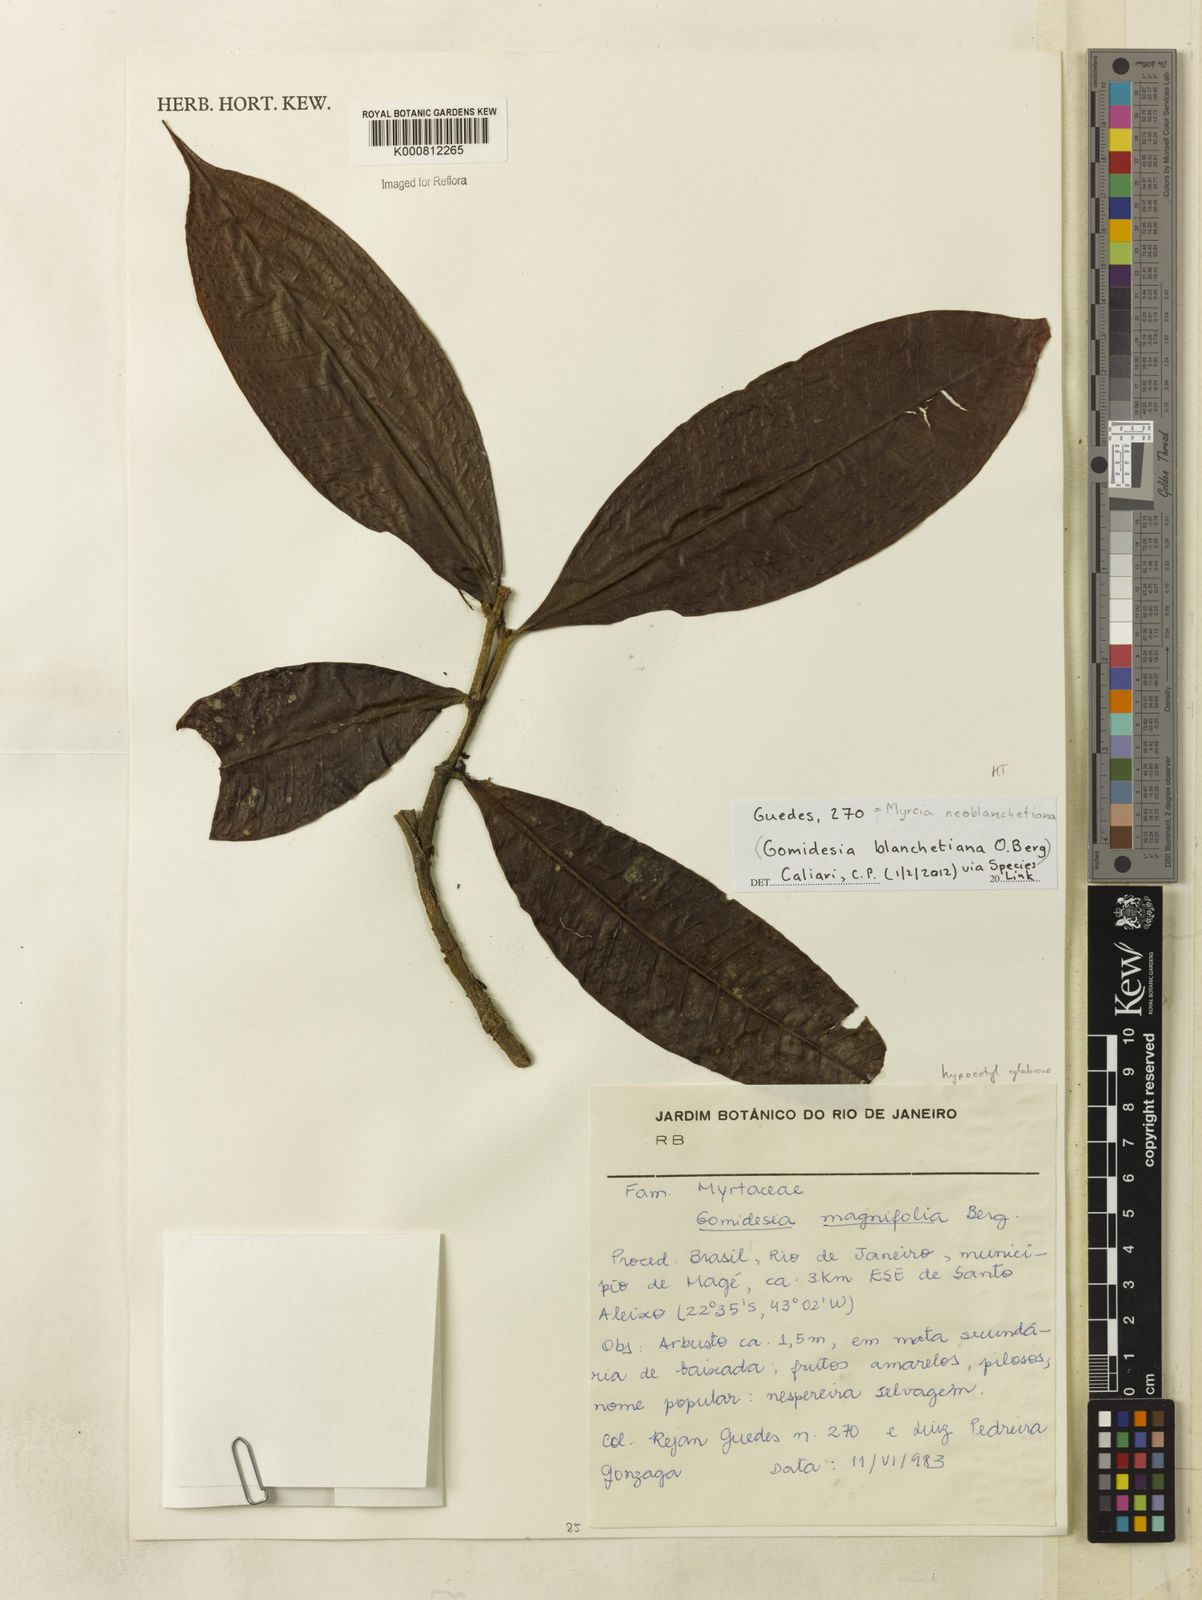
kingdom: Plantae
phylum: Tracheophyta
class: Magnoliopsida
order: Myrtales
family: Myrtaceae
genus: Myrcia
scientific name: Myrcia neoblanchetiana
